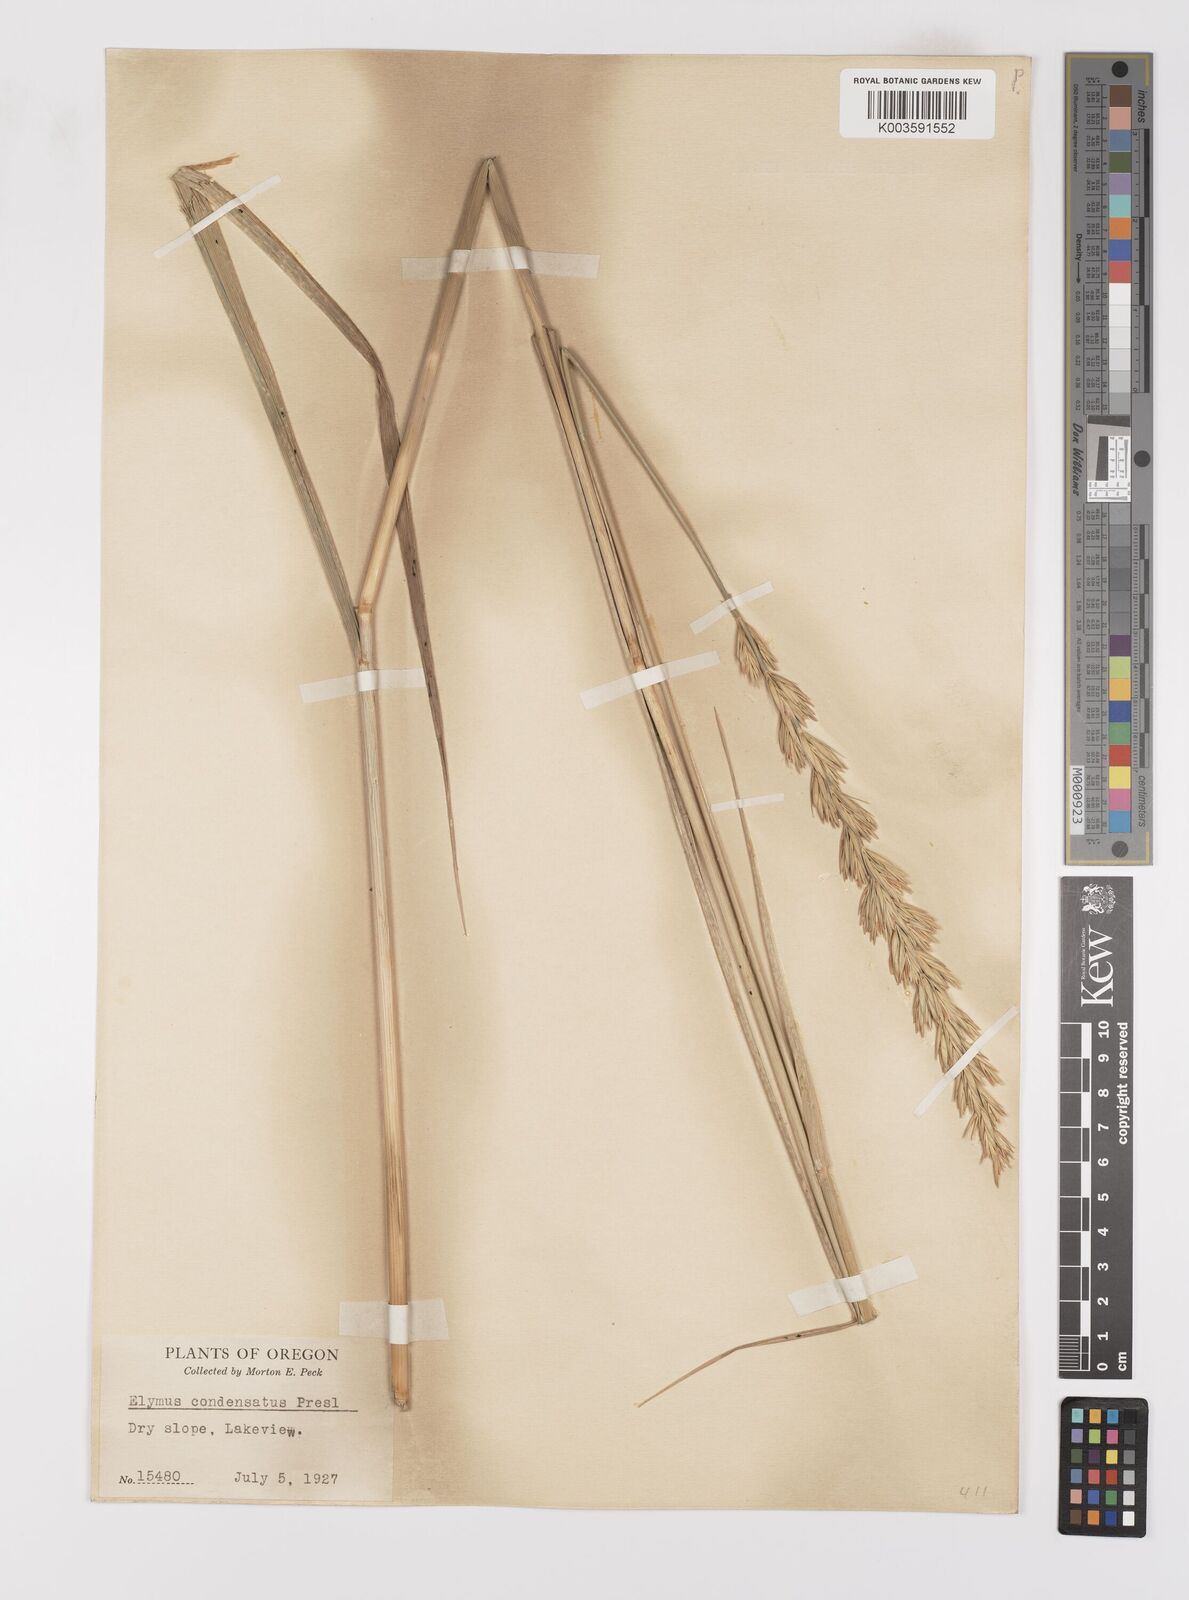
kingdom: Plantae
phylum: Tracheophyta
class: Liliopsida
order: Poales
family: Poaceae
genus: Leymus
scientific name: Leymus condensatus
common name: Giant wild rye
